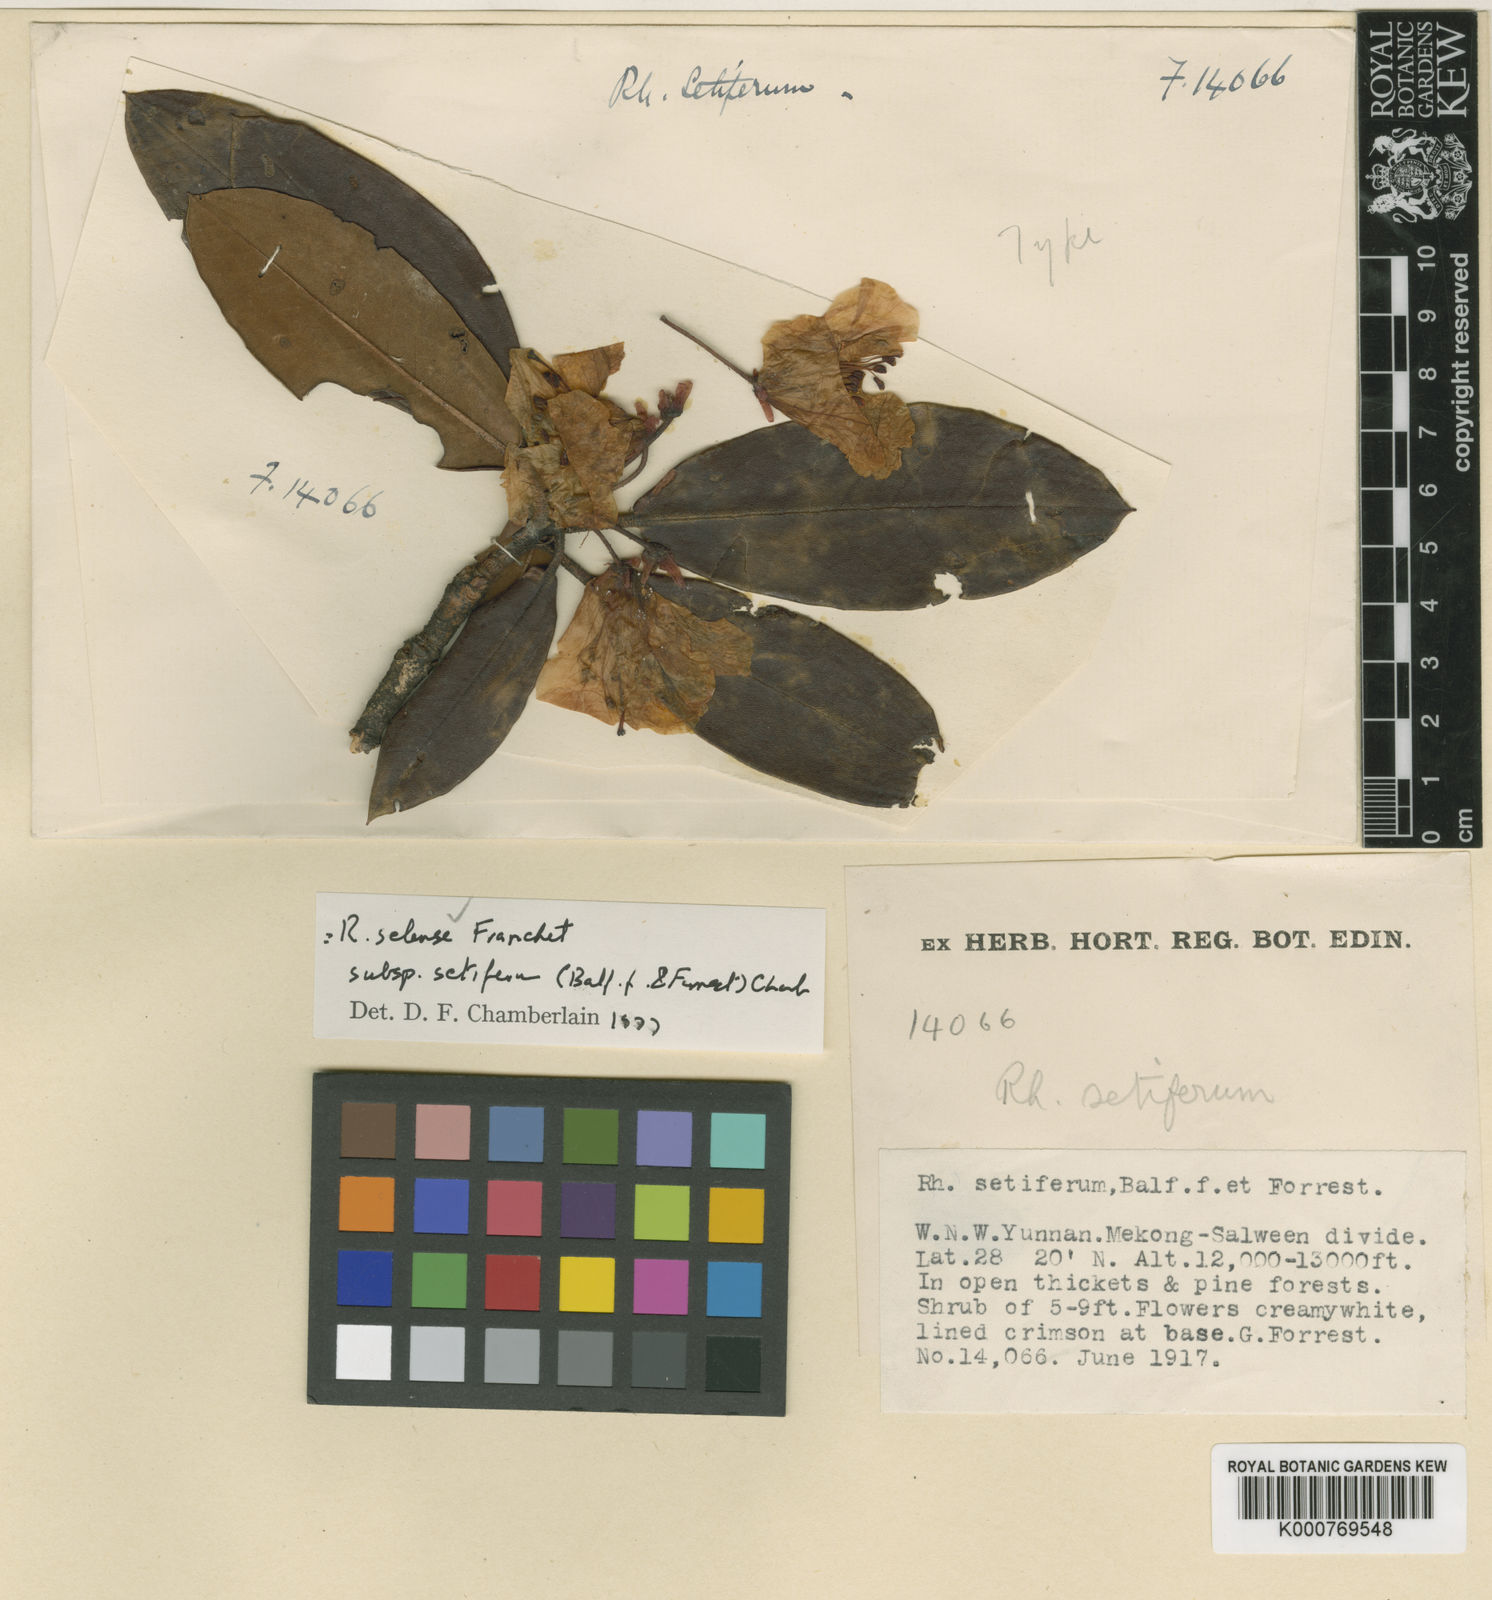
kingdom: Plantae
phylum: Tracheophyta
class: Magnoliopsida
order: Ericales
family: Ericaceae
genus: Rhododendron
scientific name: Rhododendron selense
